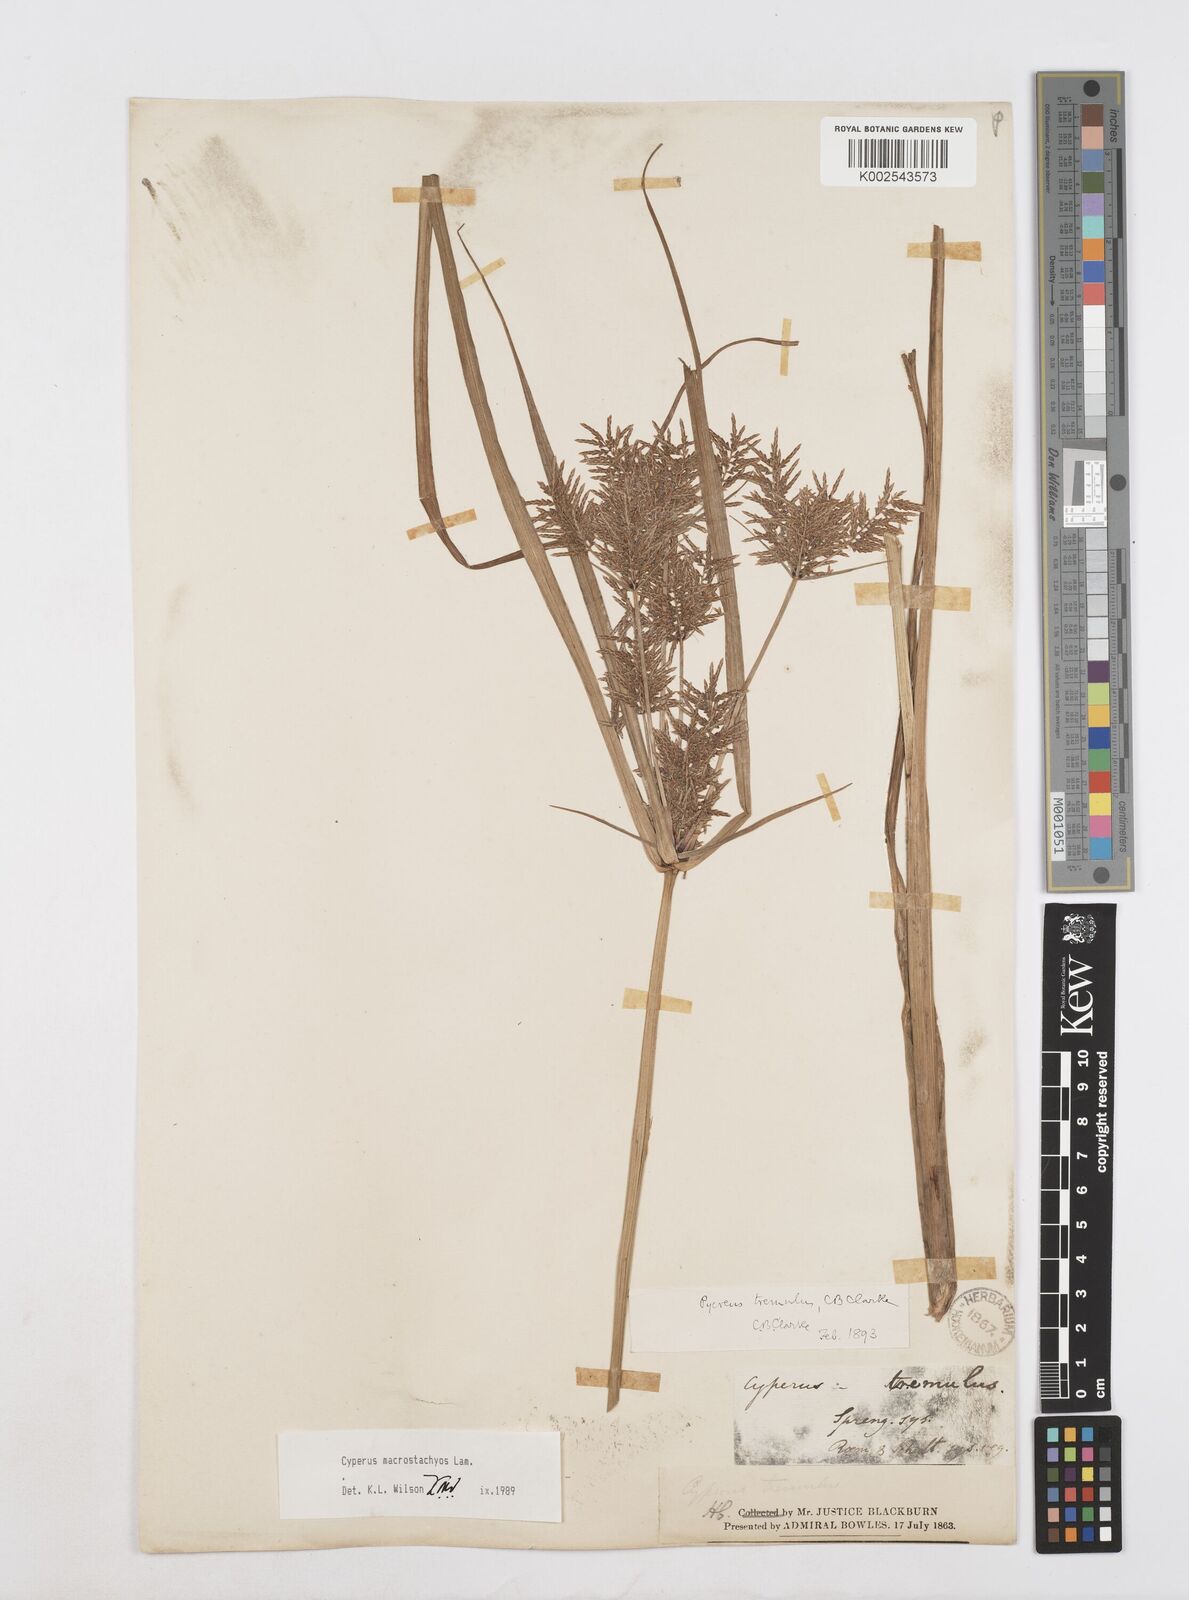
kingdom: Plantae
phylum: Tracheophyta
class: Liliopsida
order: Poales
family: Cyperaceae
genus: Cyperus
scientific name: Cyperus macrostachyos
